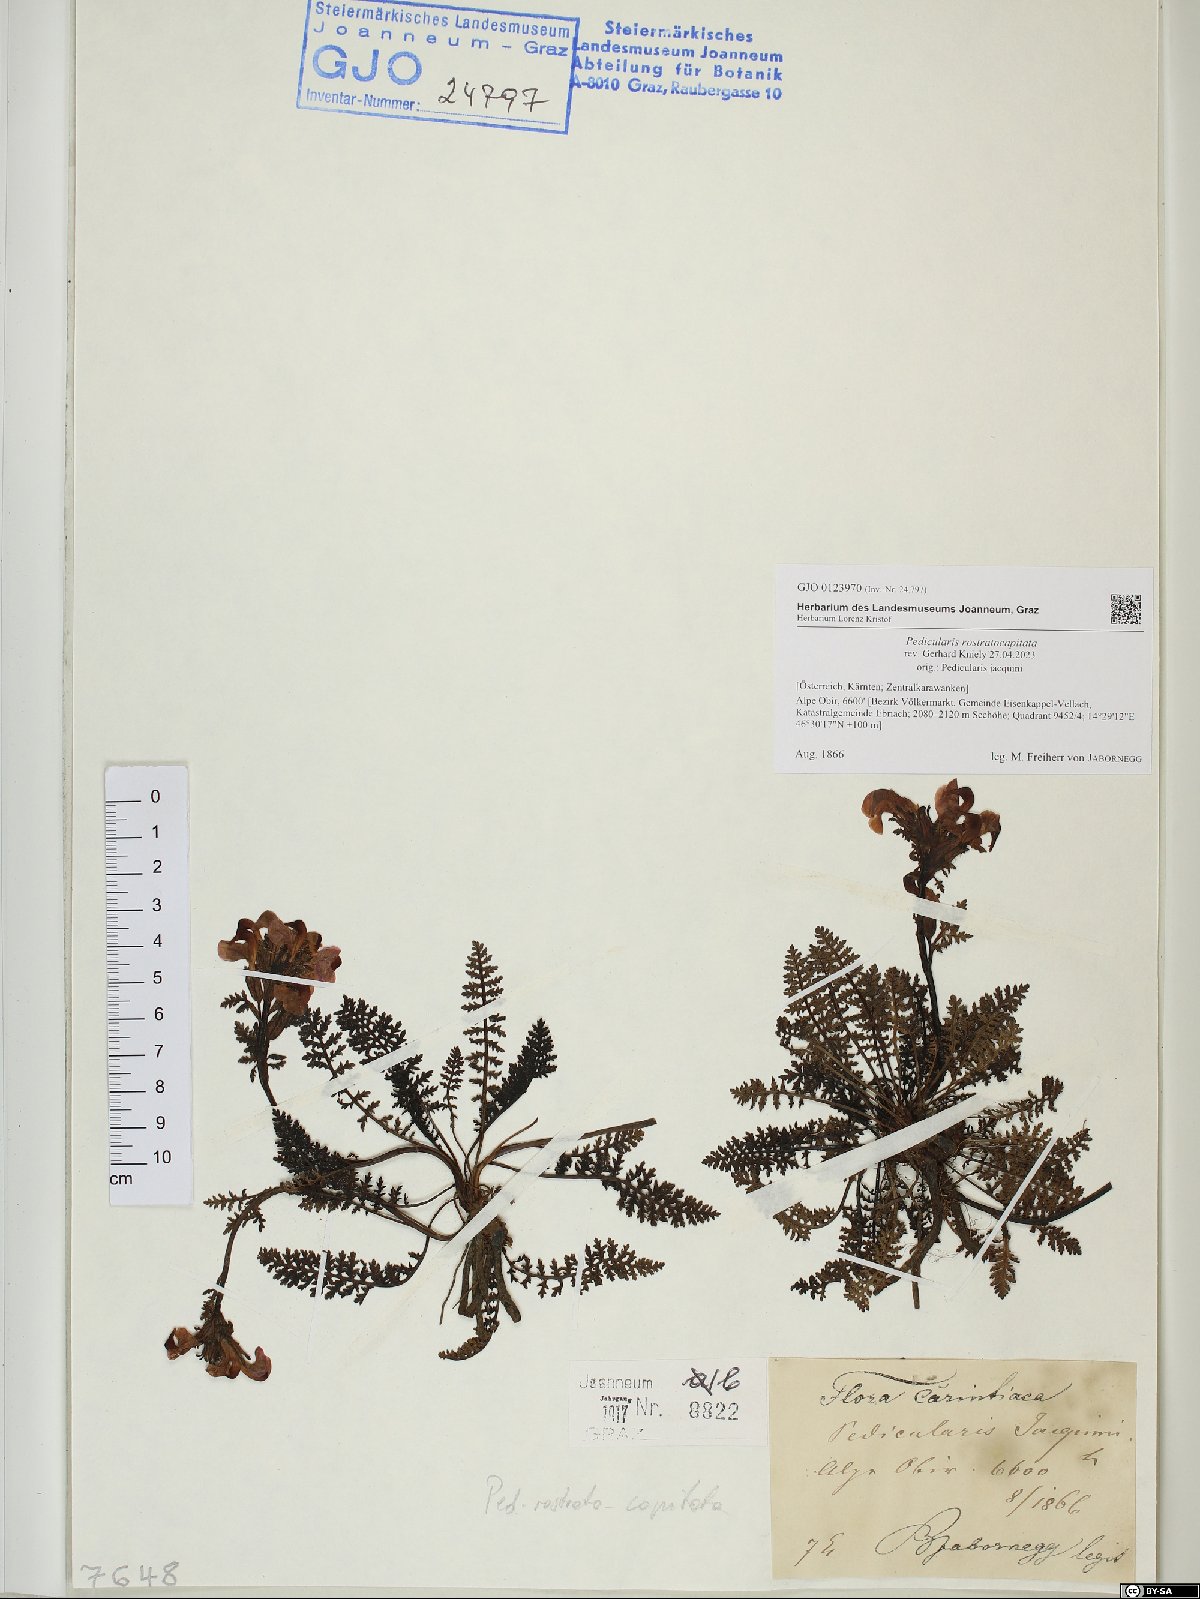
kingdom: Plantae
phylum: Tracheophyta
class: Magnoliopsida
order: Lamiales
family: Orobanchaceae
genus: Pedicularis
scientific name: Pedicularis rostratocapitata
